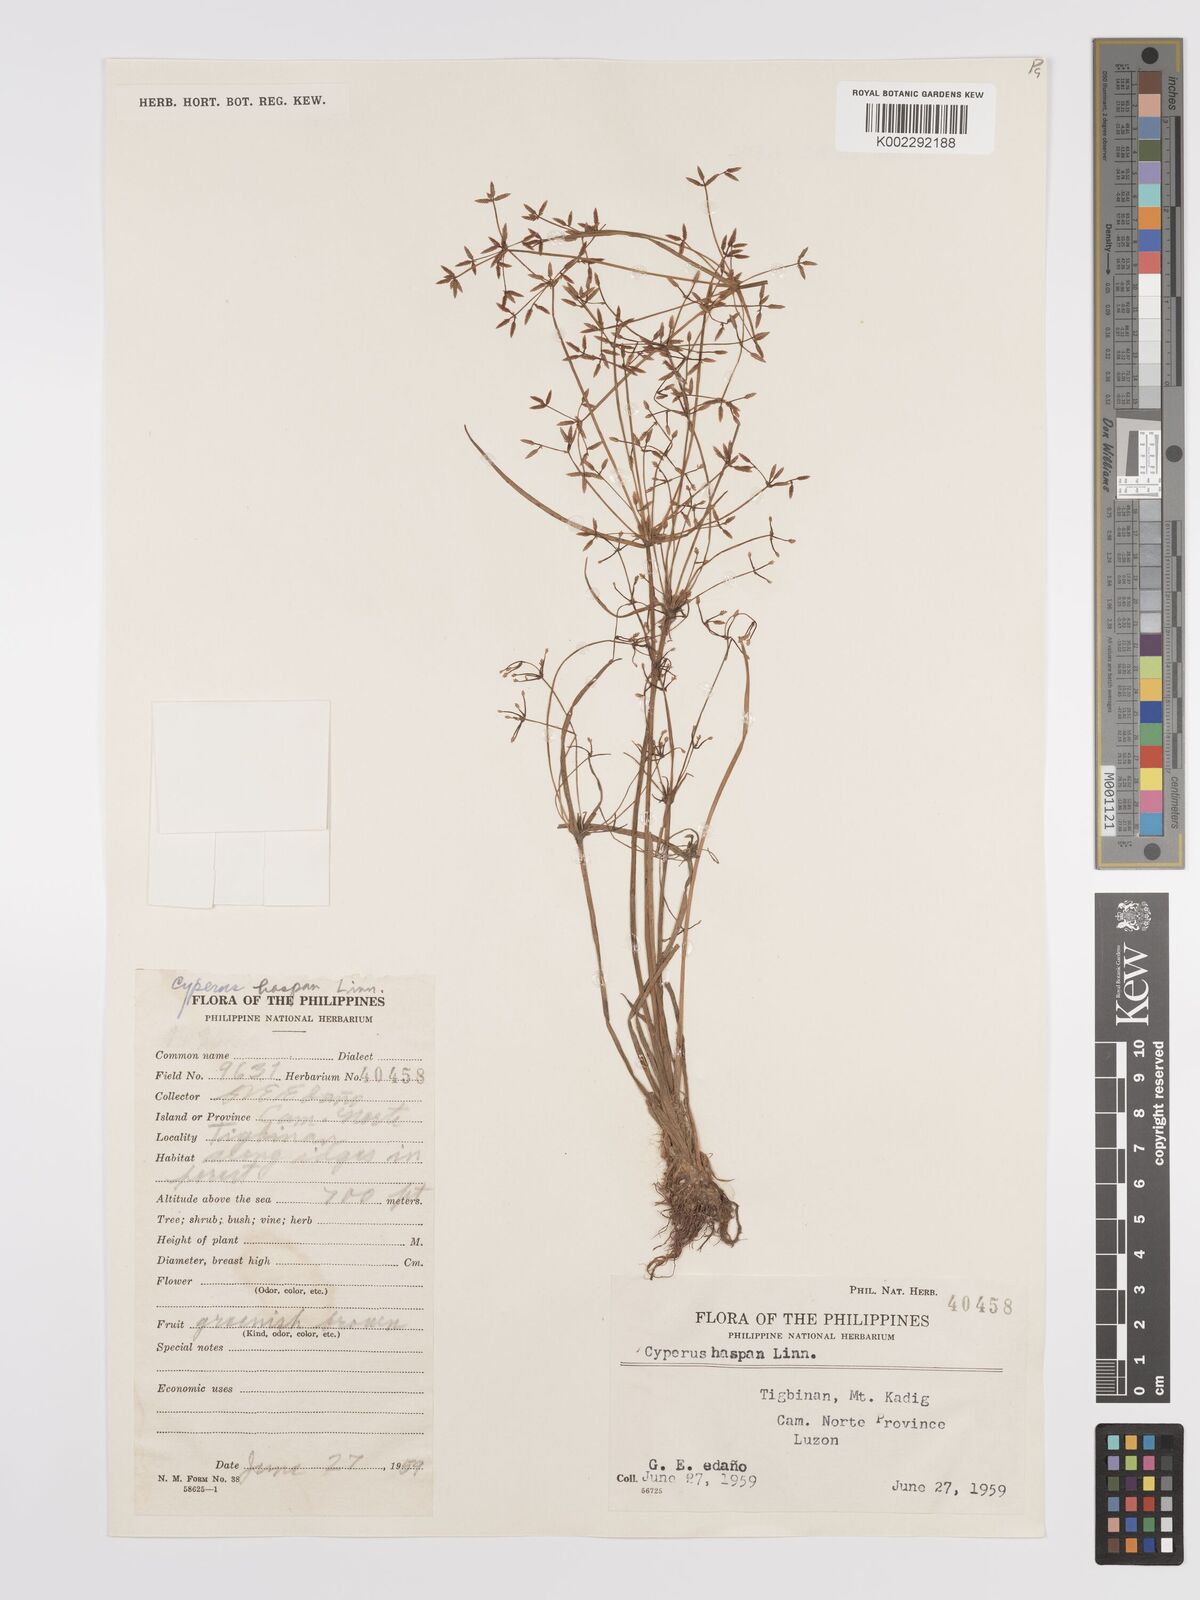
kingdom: Plantae
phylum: Tracheophyta
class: Liliopsida
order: Poales
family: Cyperaceae
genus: Cyperus
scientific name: Cyperus haspan
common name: Haspan flatsedge
